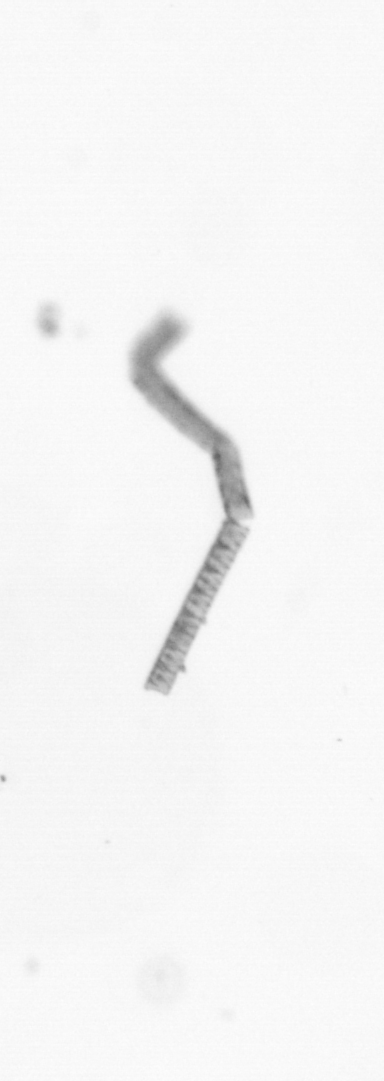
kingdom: Chromista
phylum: Ochrophyta
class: Bacillariophyceae
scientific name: Bacillariophyceae
